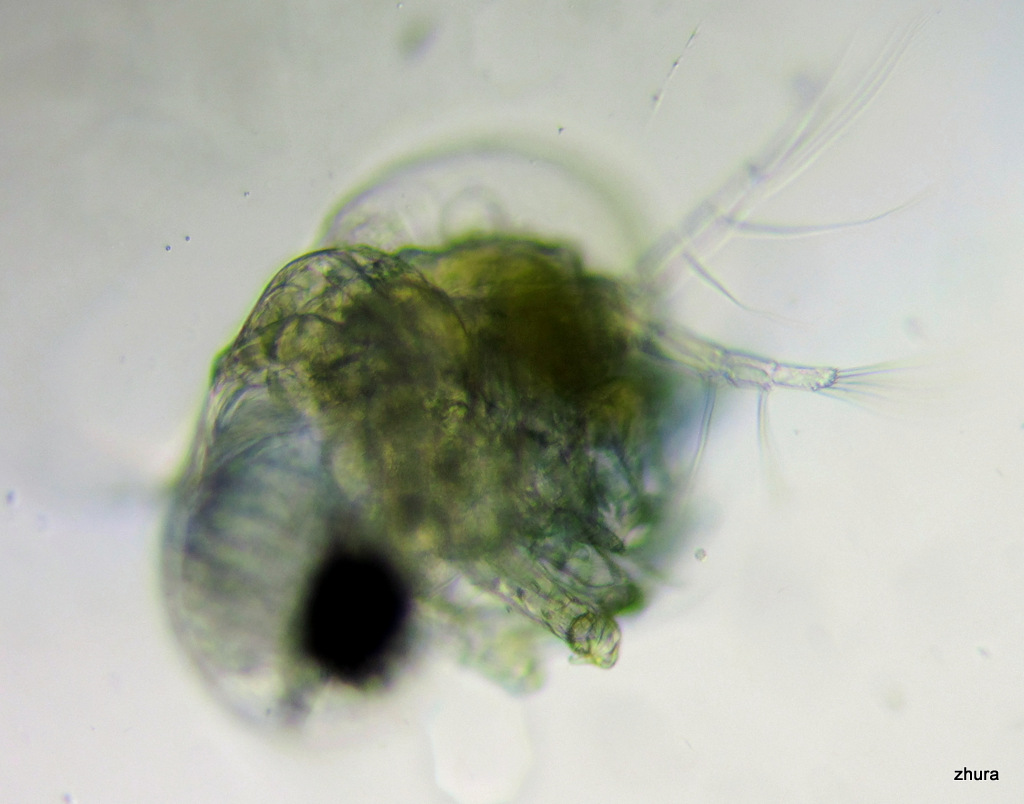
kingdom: Animalia
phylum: Arthropoda
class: Branchiopoda
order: Diplostraca
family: Podonidae
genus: Podon
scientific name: Podon leuckarti
